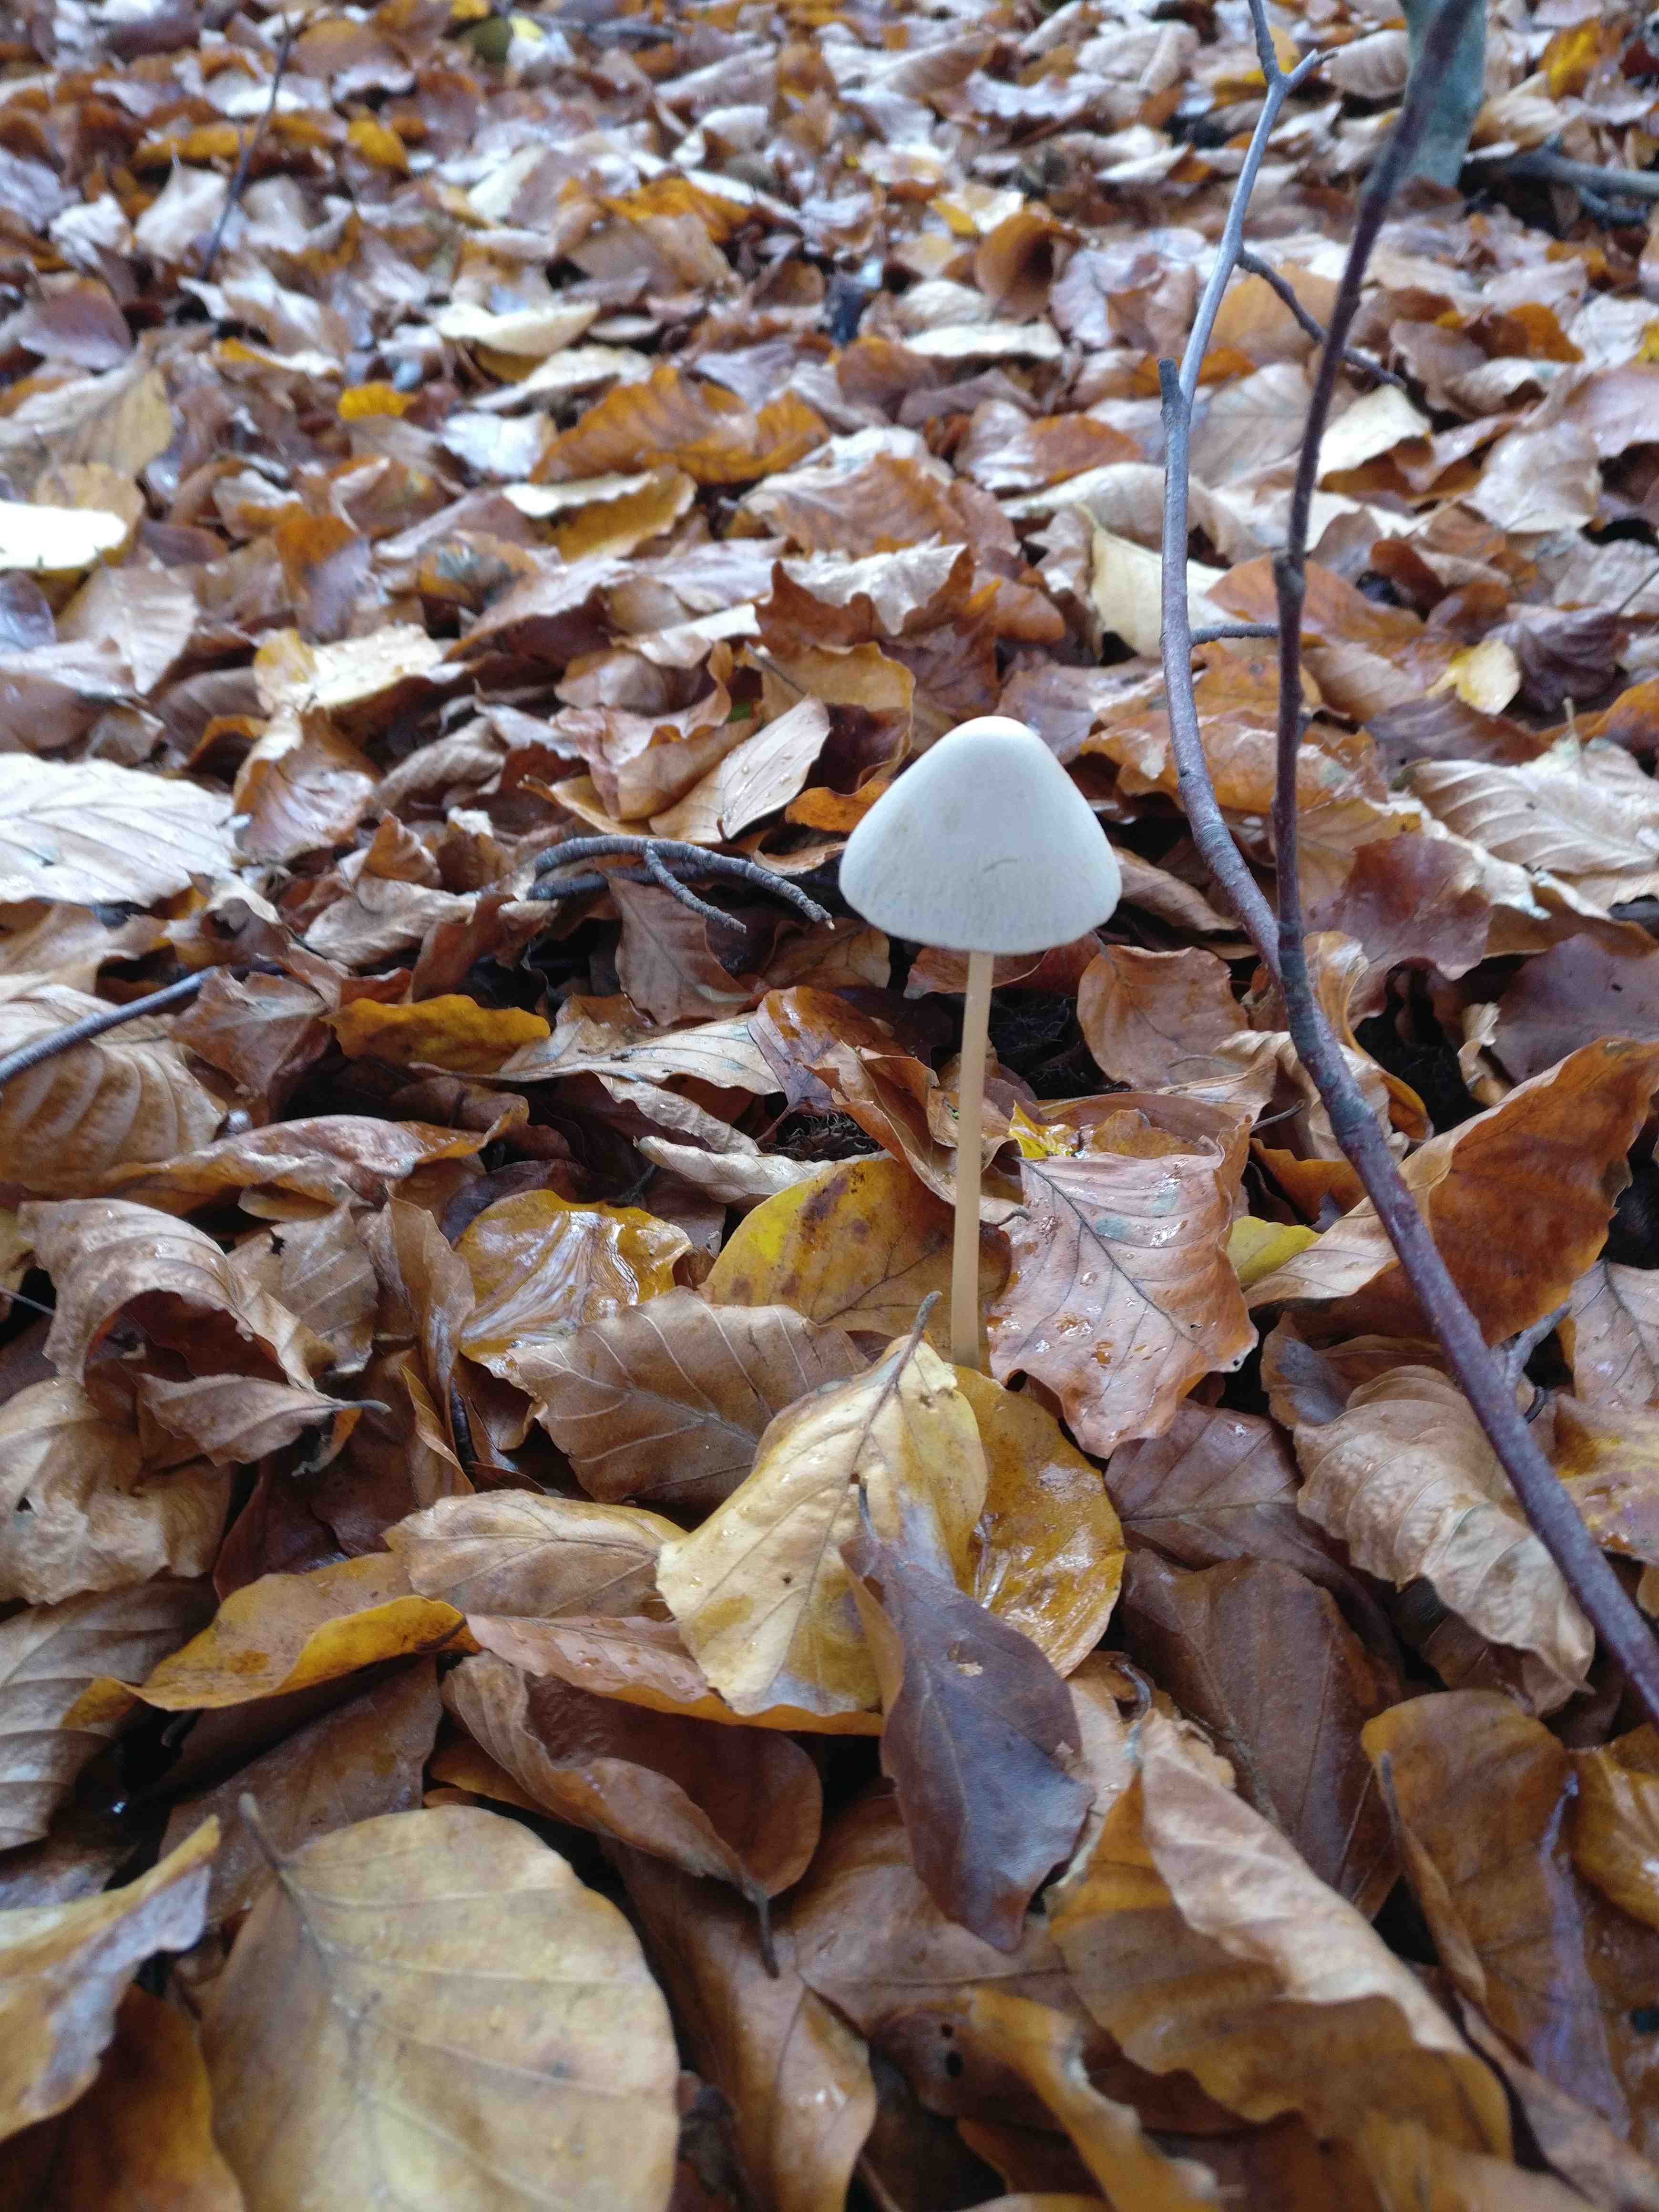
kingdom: Fungi
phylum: Basidiomycota
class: Agaricomycetes
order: Agaricales
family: Psathyrellaceae
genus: Parasola
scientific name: Parasola conopilea
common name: kegle-hjulhat
